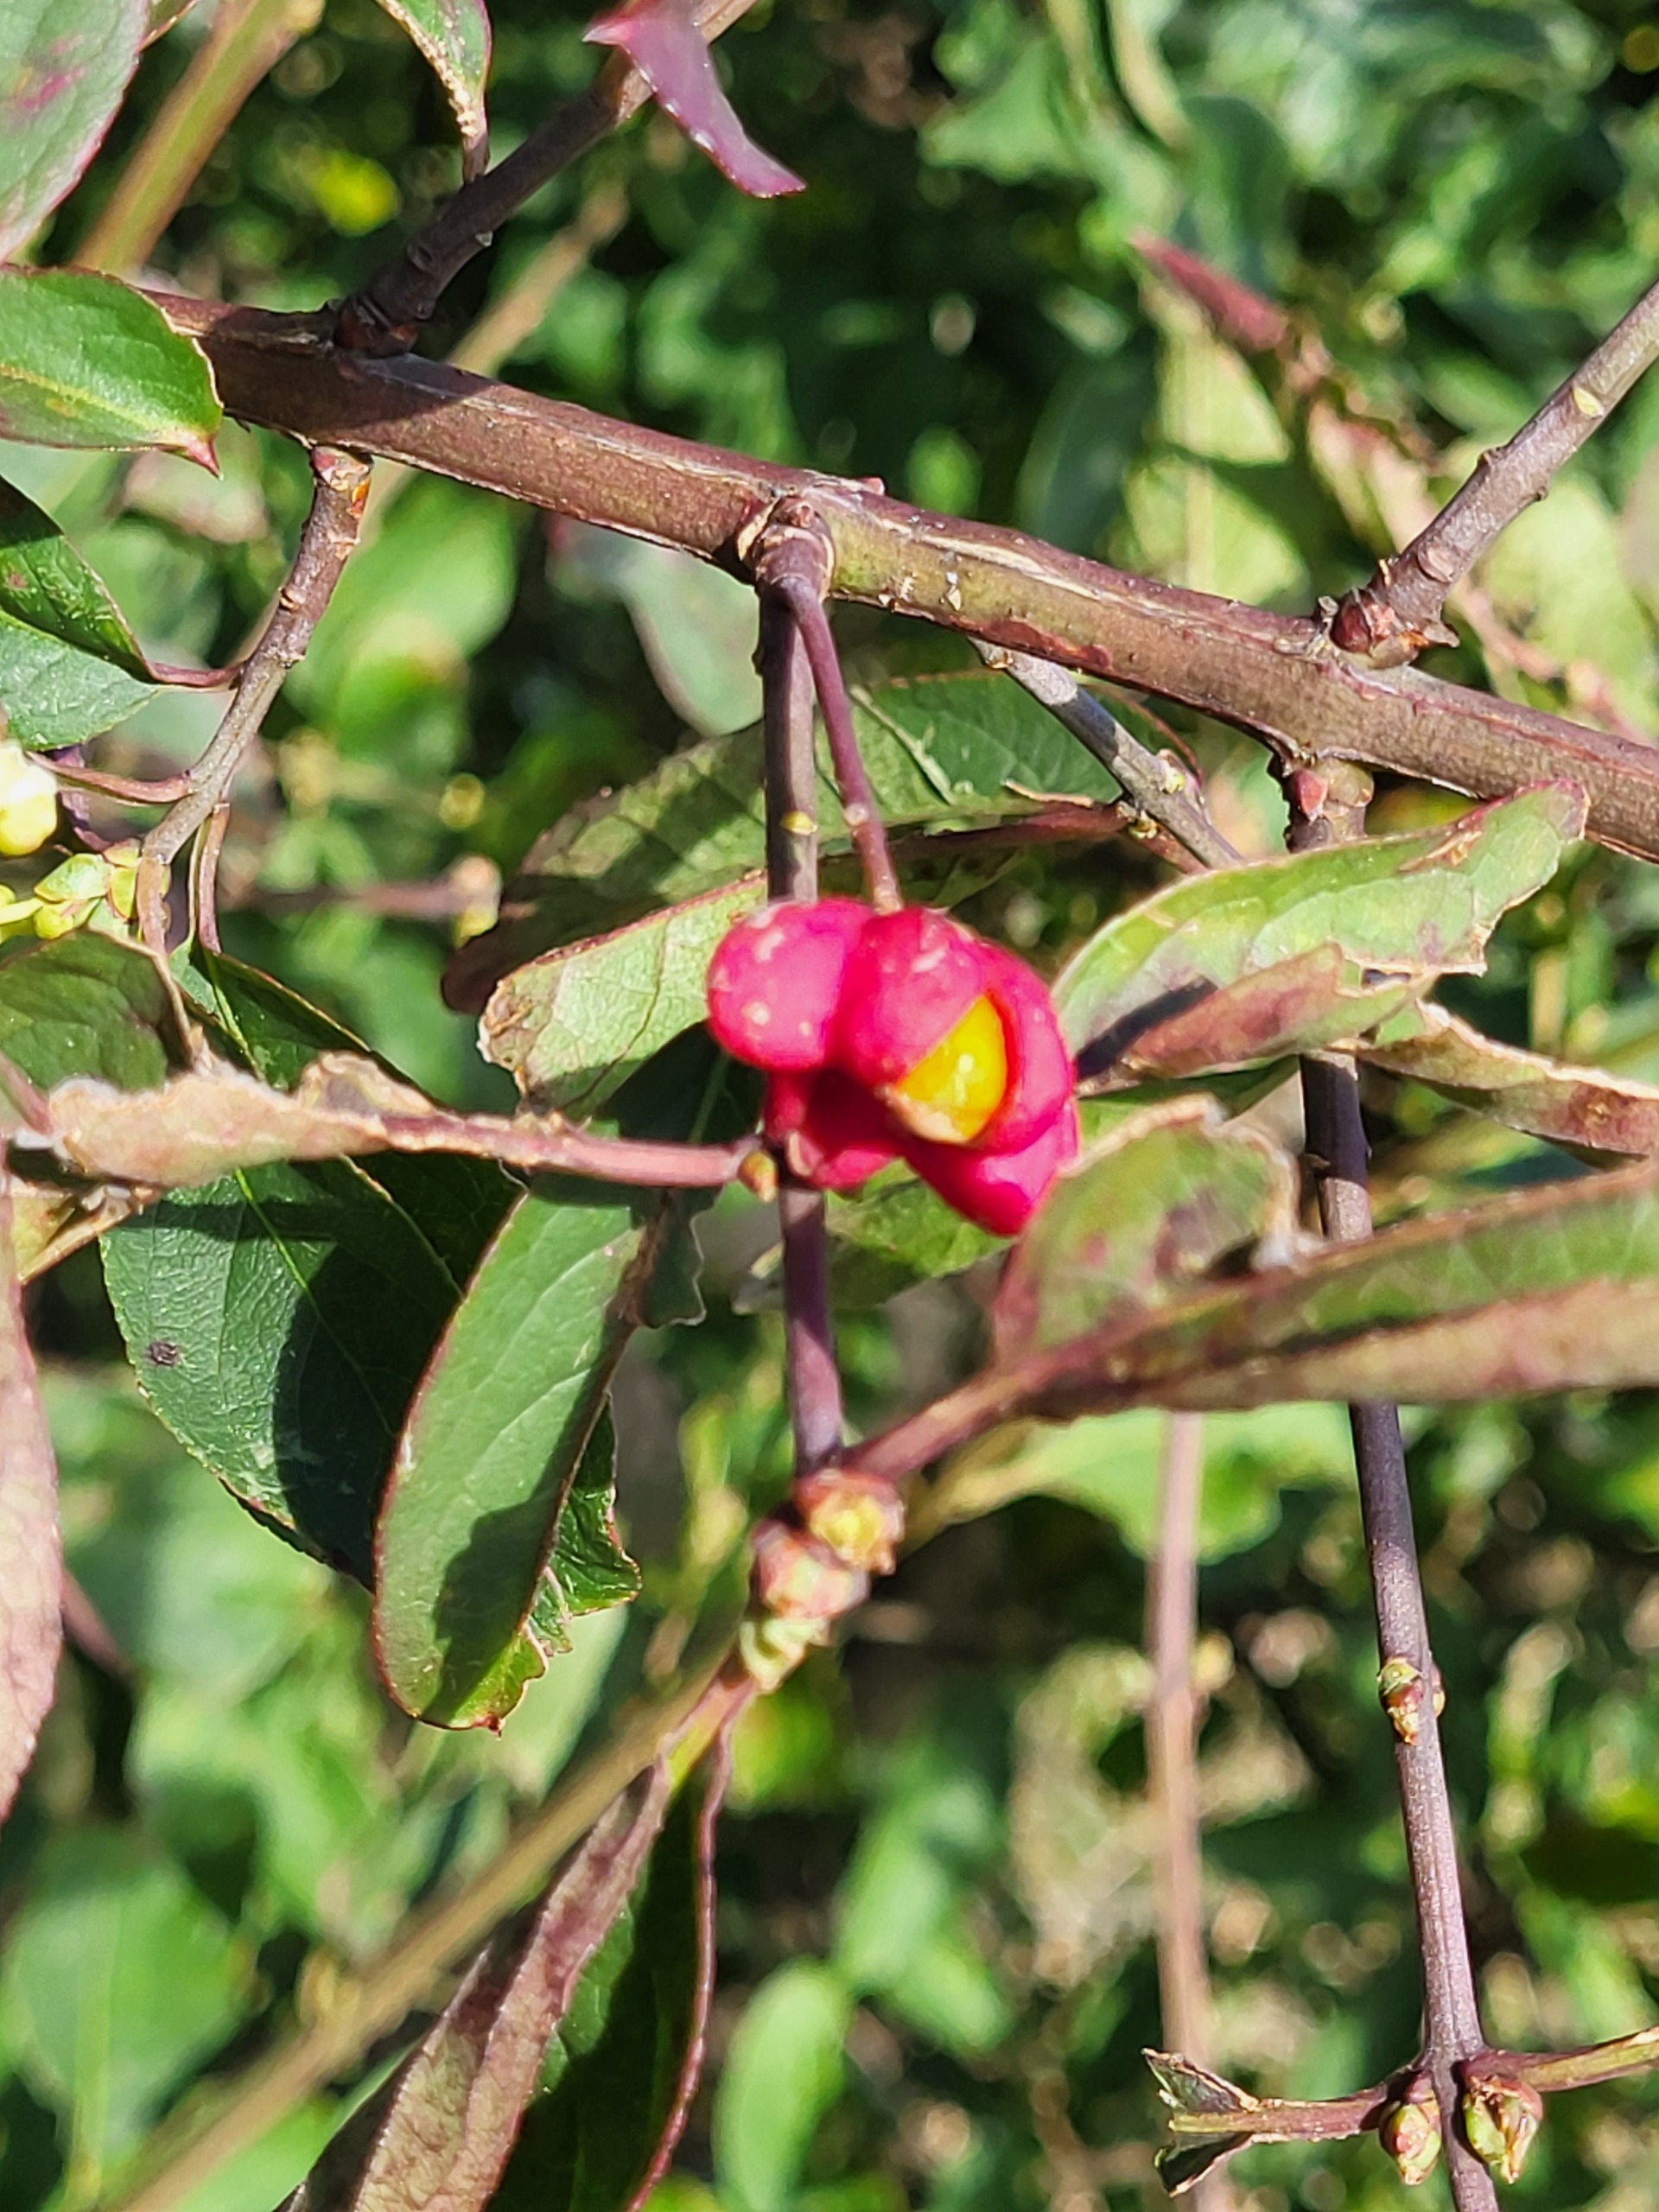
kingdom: Plantae
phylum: Tracheophyta
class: Magnoliopsida
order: Celastrales
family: Celastraceae
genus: Euonymus
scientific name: Euonymus europaeus
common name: Benved
